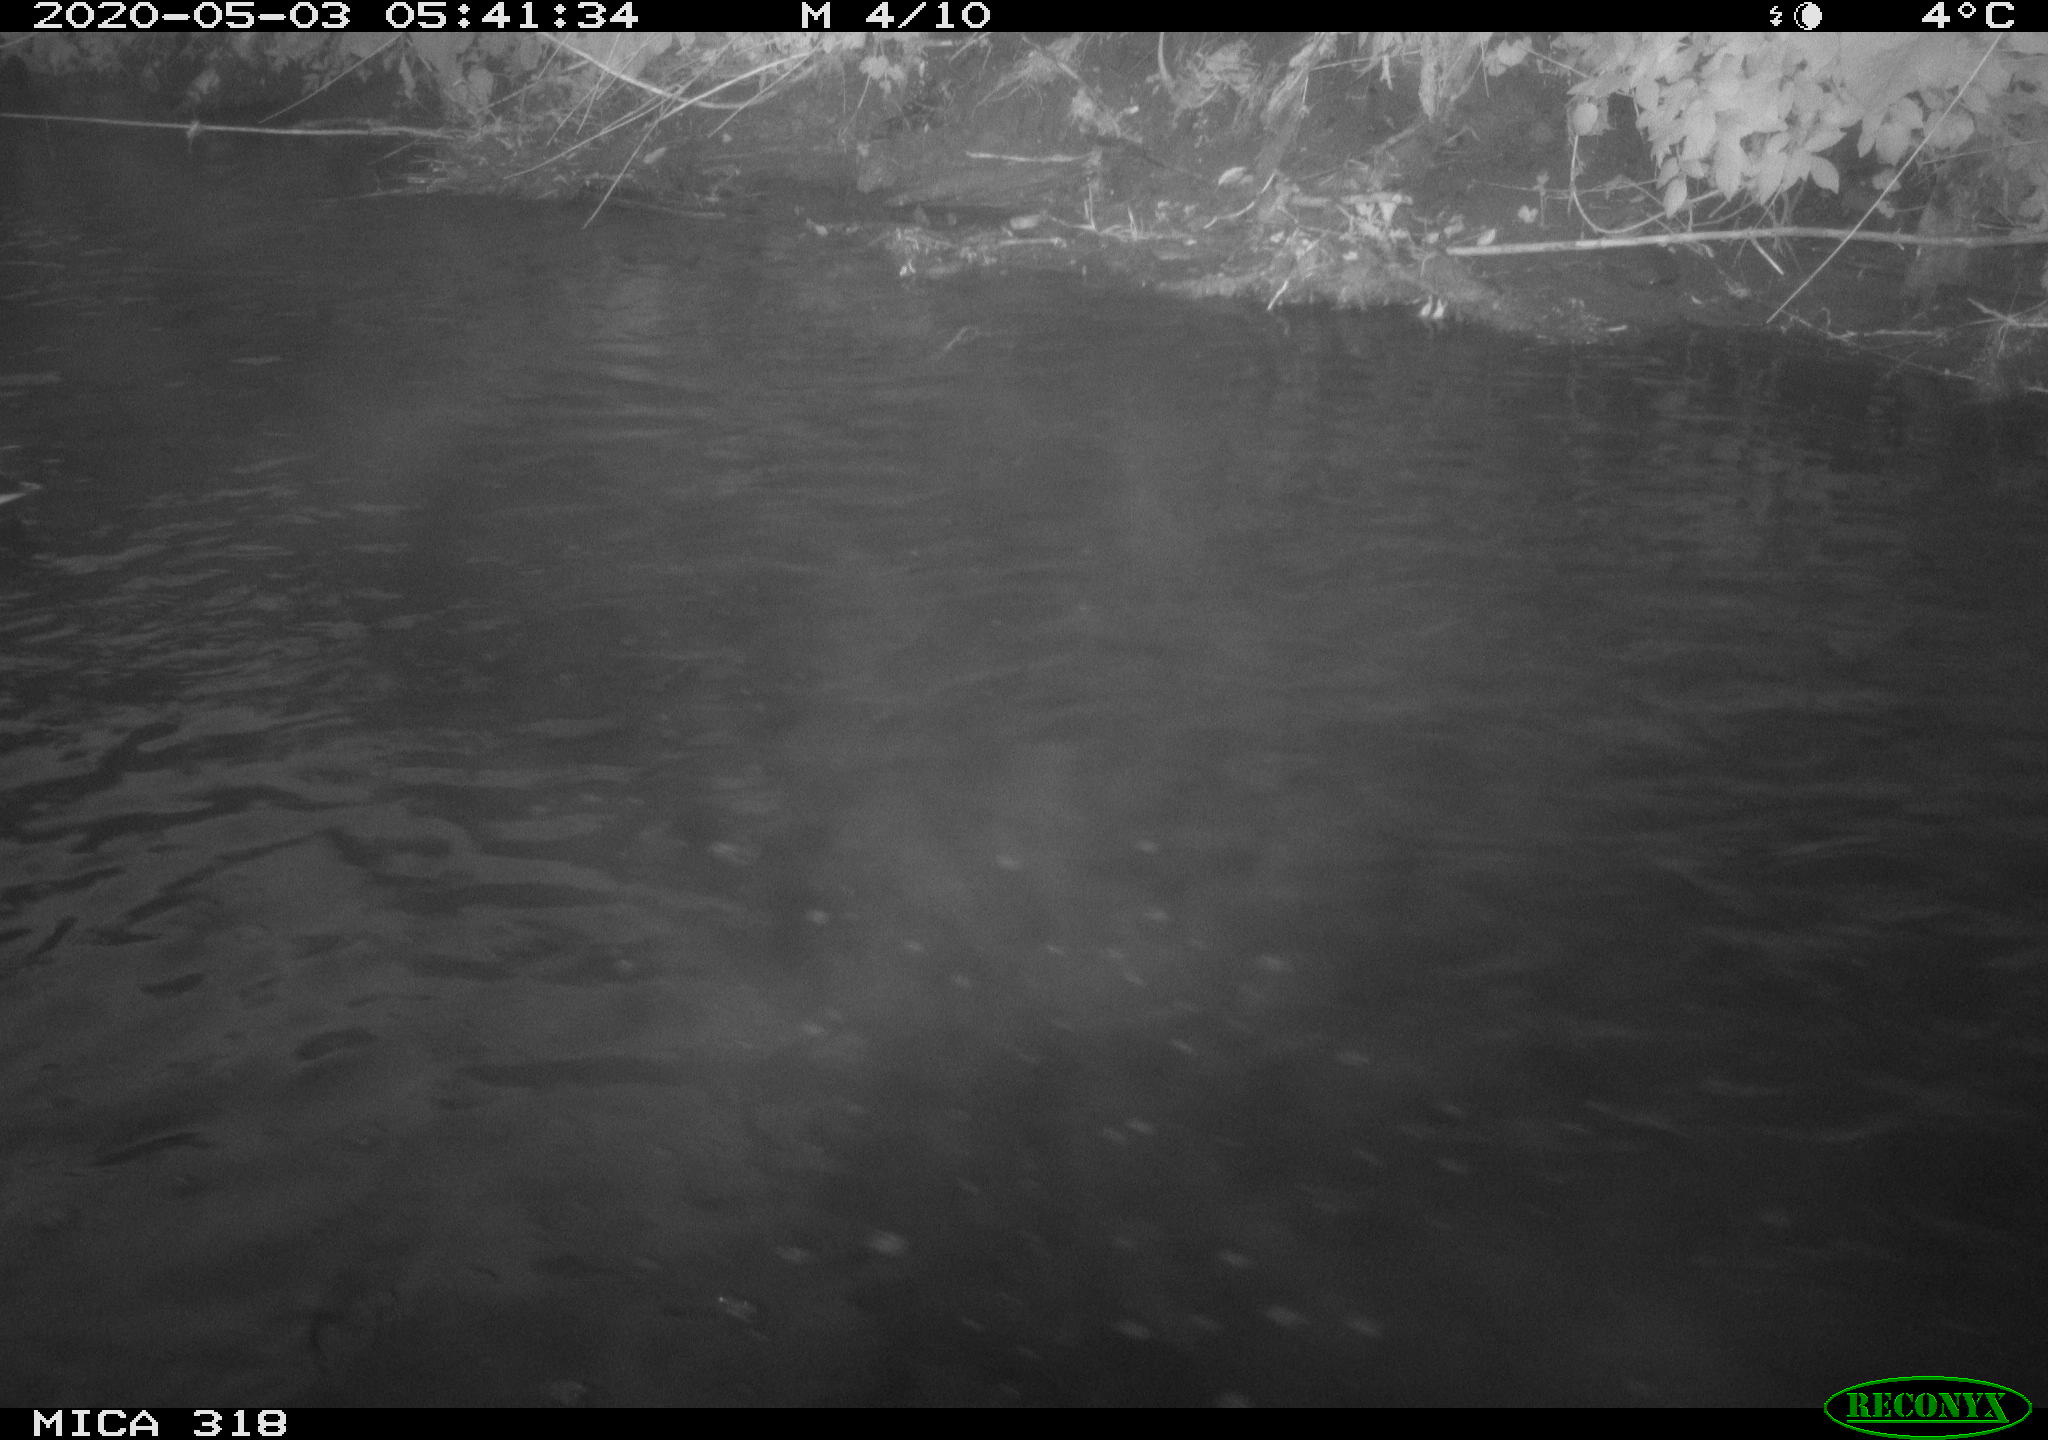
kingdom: Animalia
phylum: Chordata
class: Aves
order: Anseriformes
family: Anatidae
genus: Anas
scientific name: Anas platyrhynchos
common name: Mallard
